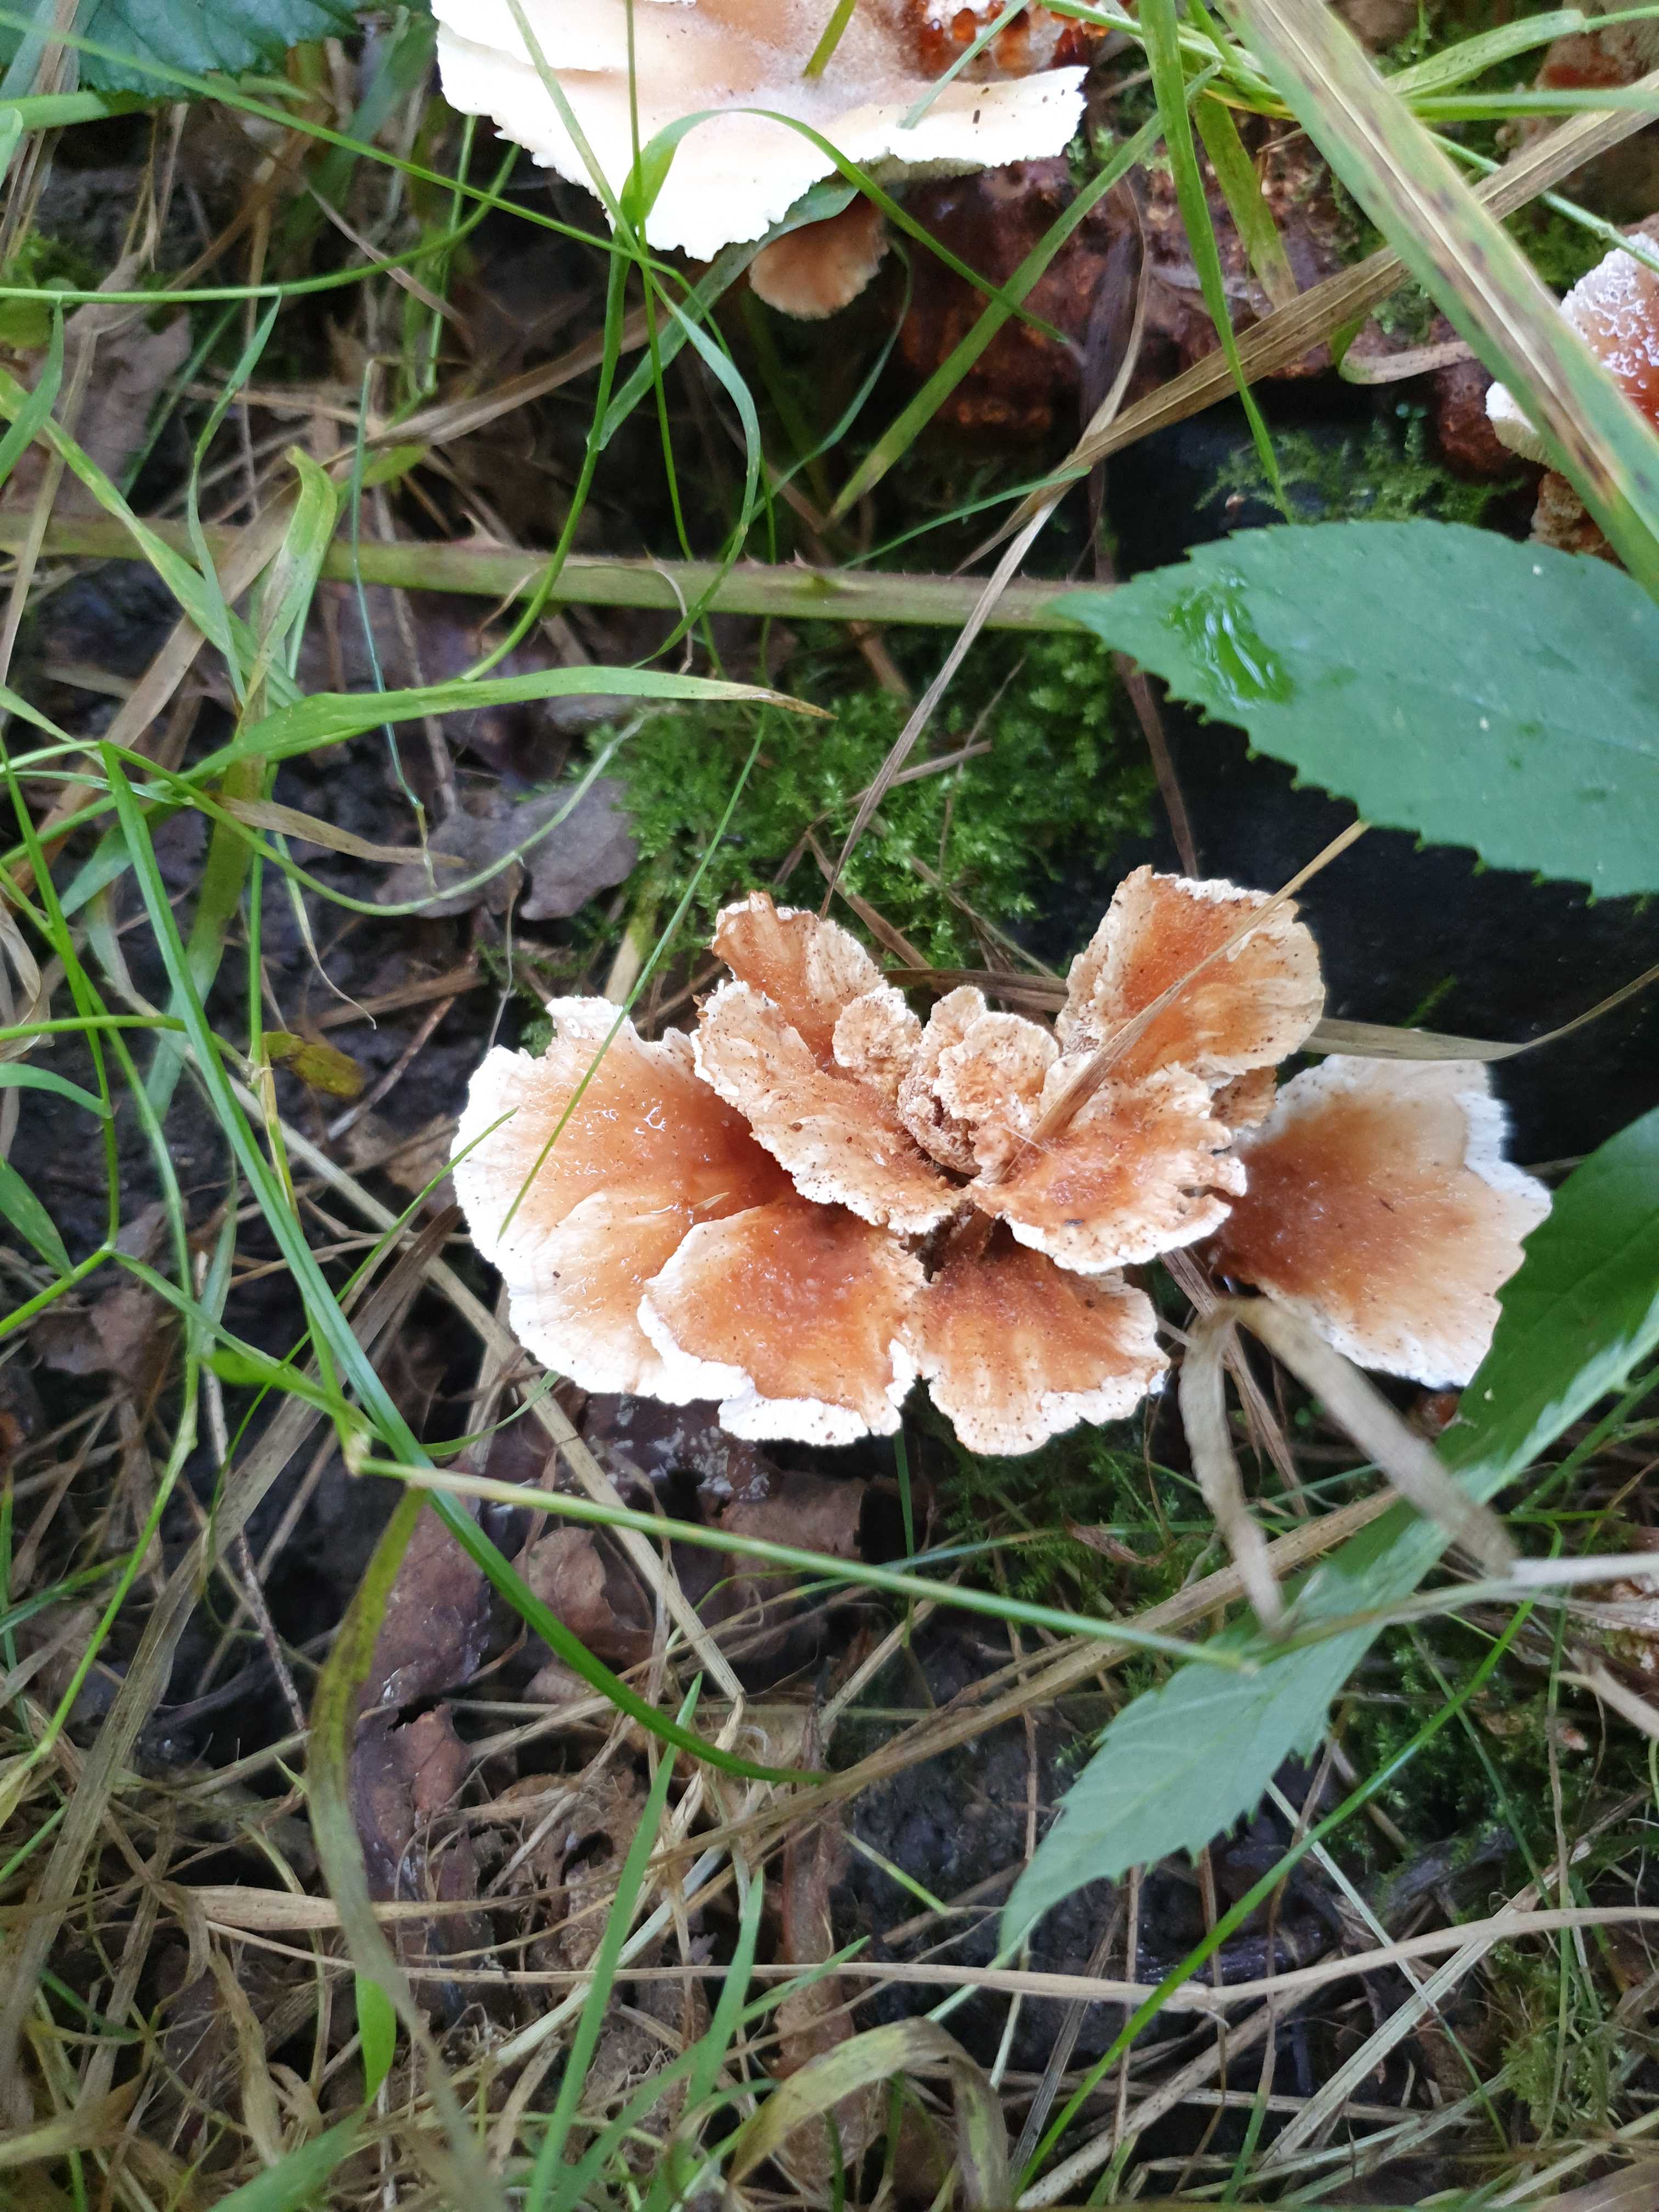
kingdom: Fungi
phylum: Basidiomycota
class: Agaricomycetes
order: Polyporales
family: Podoscyphaceae
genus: Abortiporus
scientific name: Abortiporus biennis
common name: rødmende pjalteporesvamp
